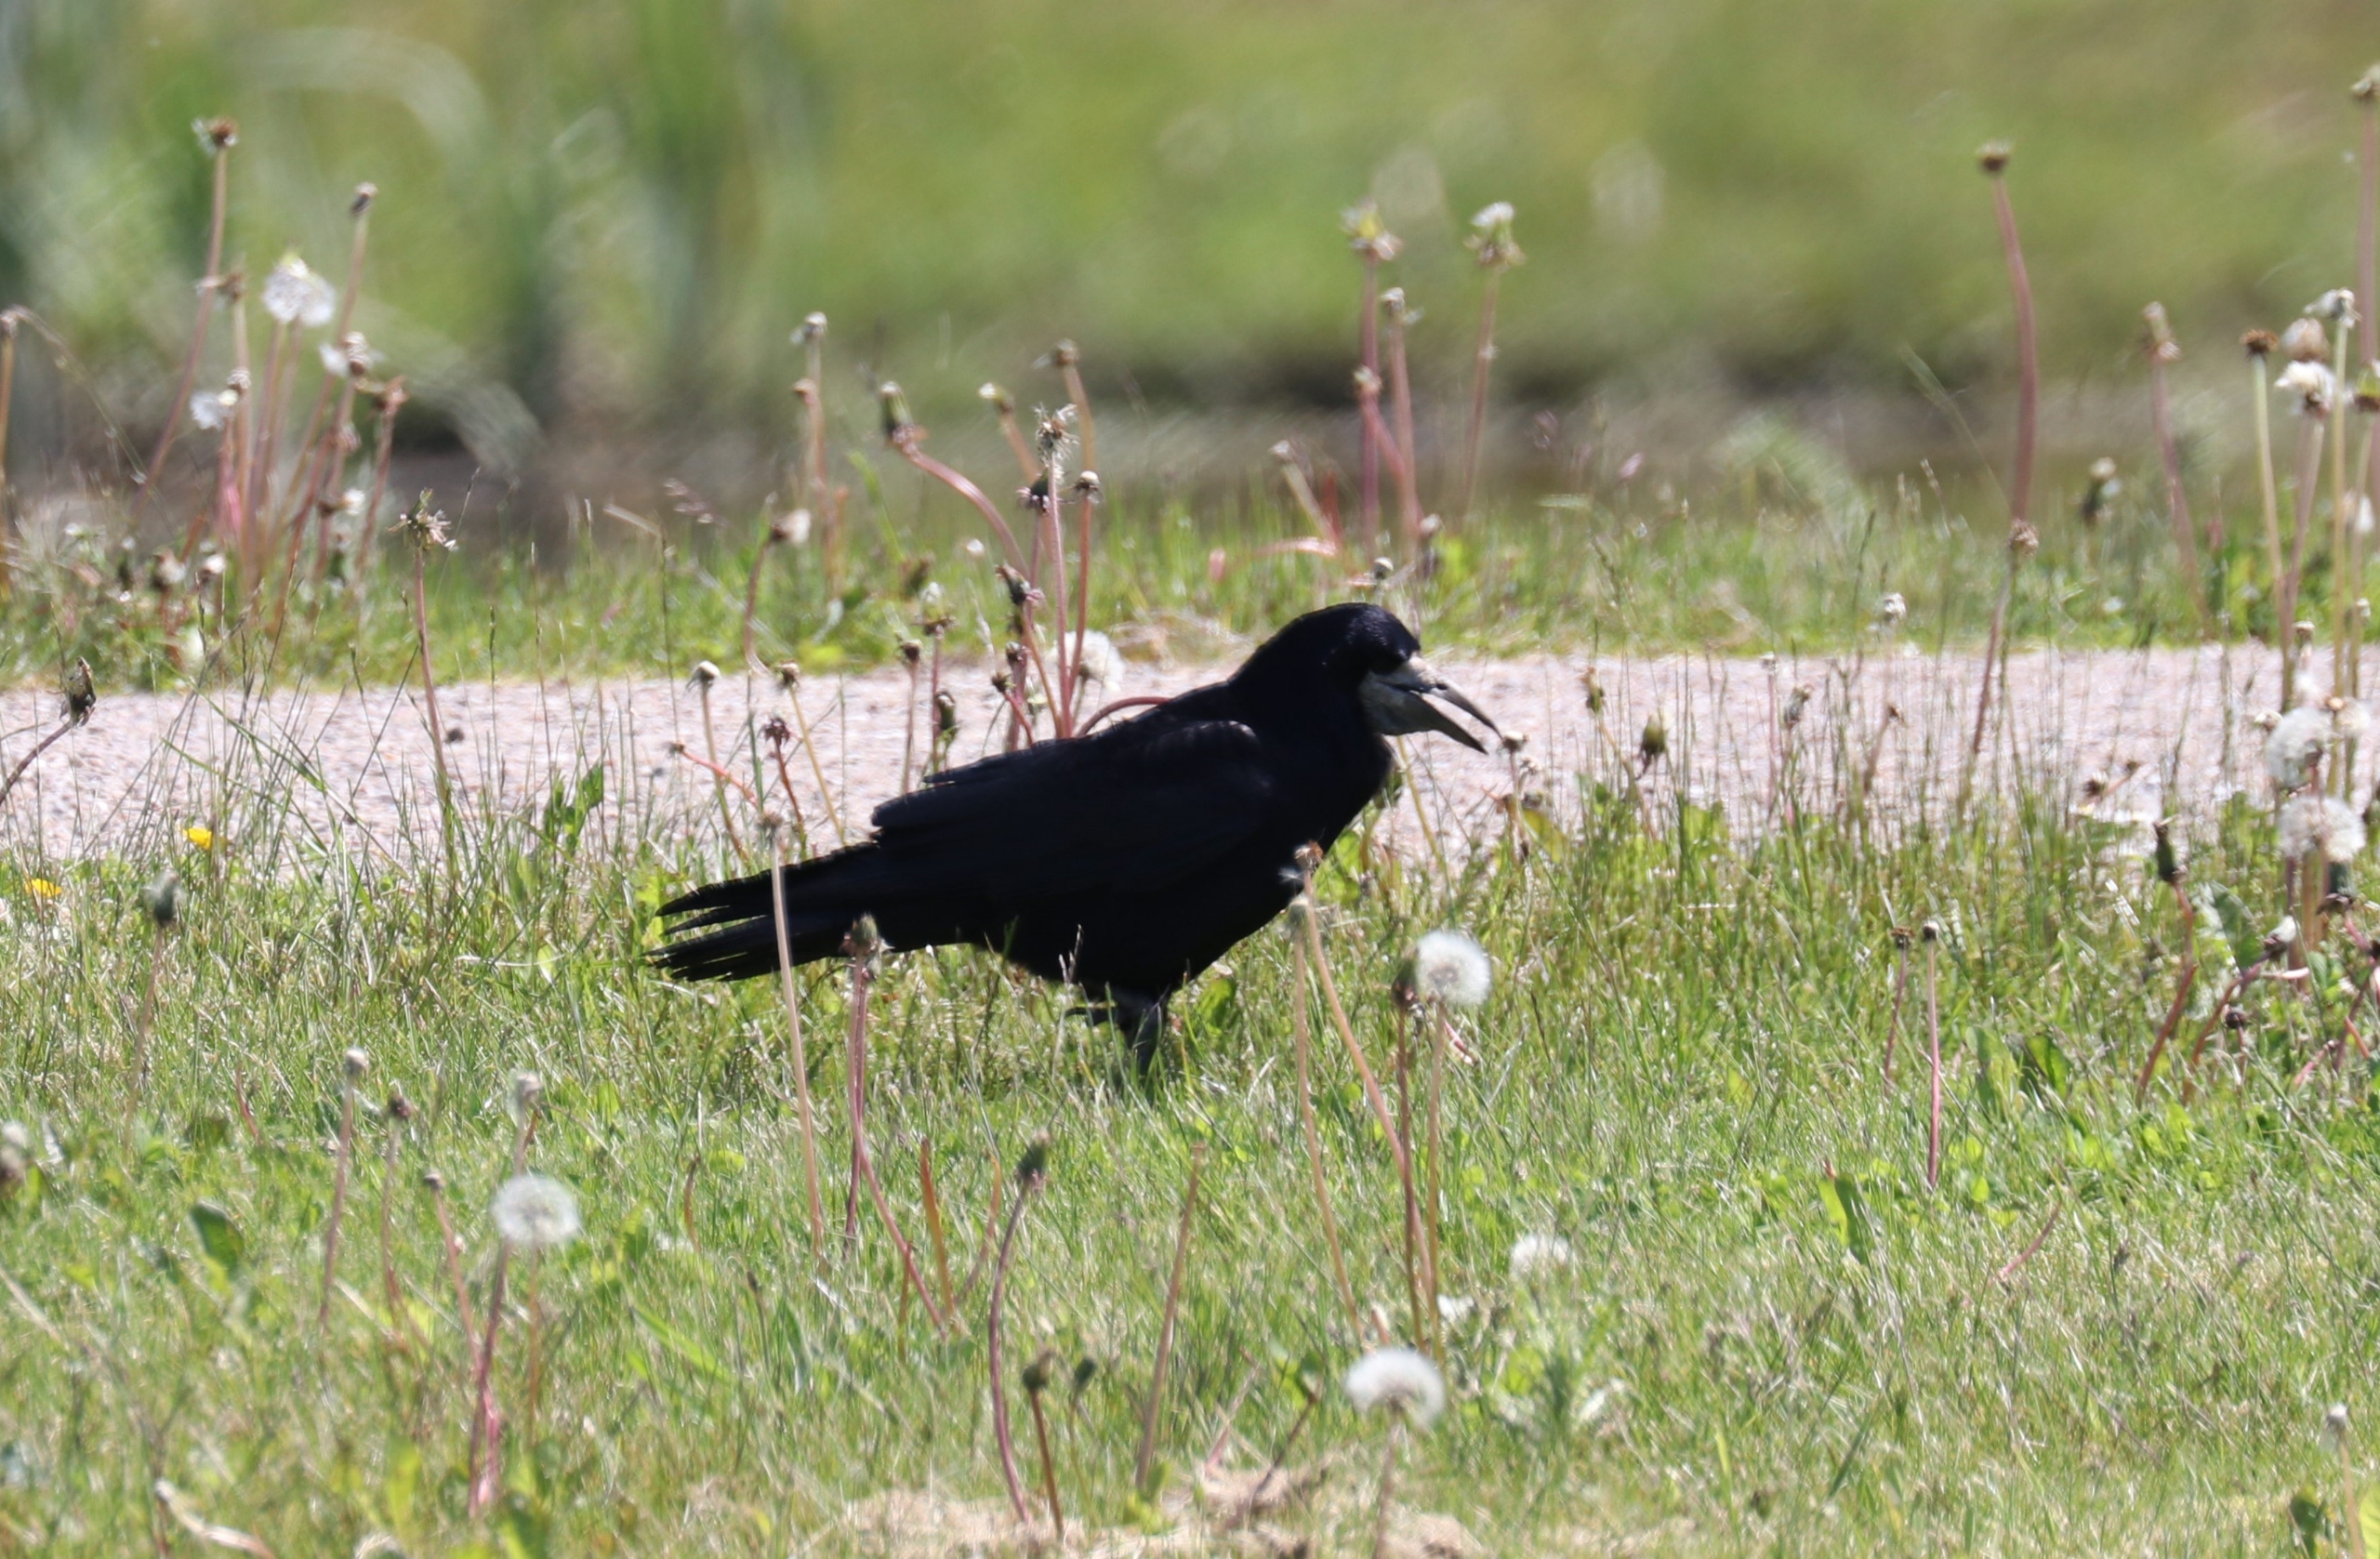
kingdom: Animalia
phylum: Chordata
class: Aves
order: Passeriformes
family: Corvidae
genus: Corvus
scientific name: Corvus frugilegus
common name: Råge
